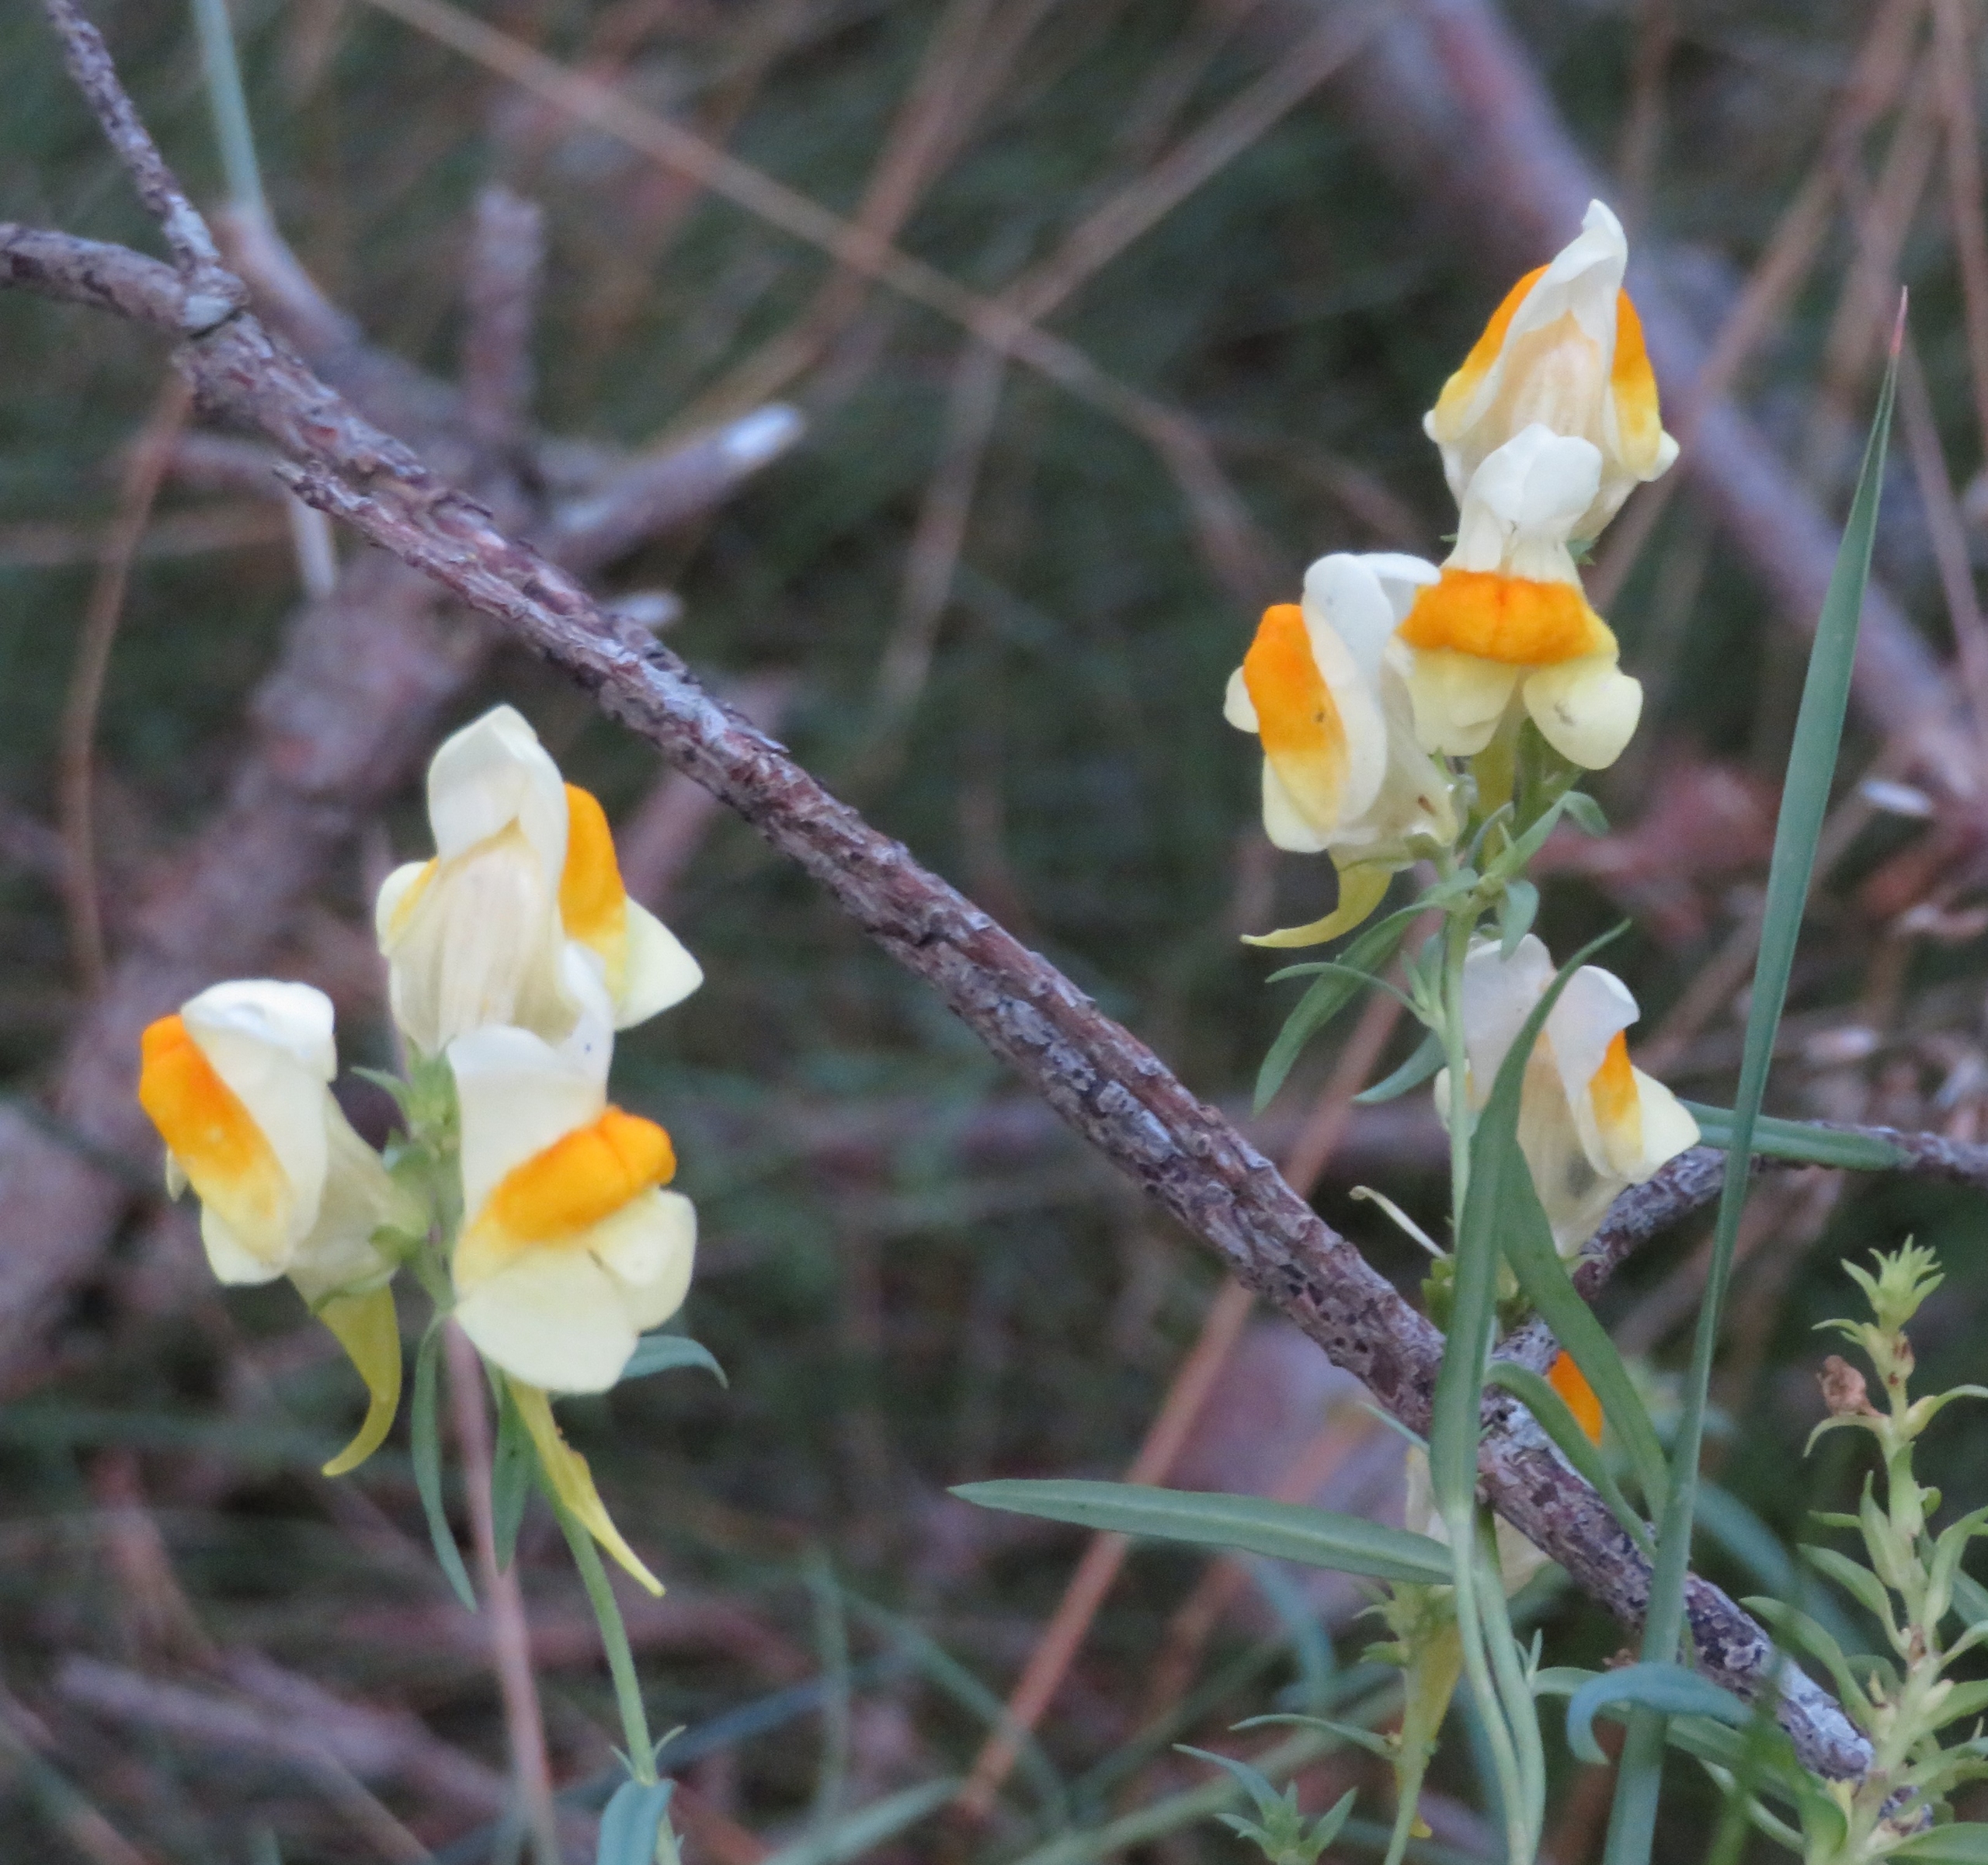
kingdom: Plantae
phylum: Tracheophyta
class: Magnoliopsida
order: Lamiales
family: Plantaginaceae
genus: Linaria
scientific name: Linaria vulgaris
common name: Almindelig torskemund
